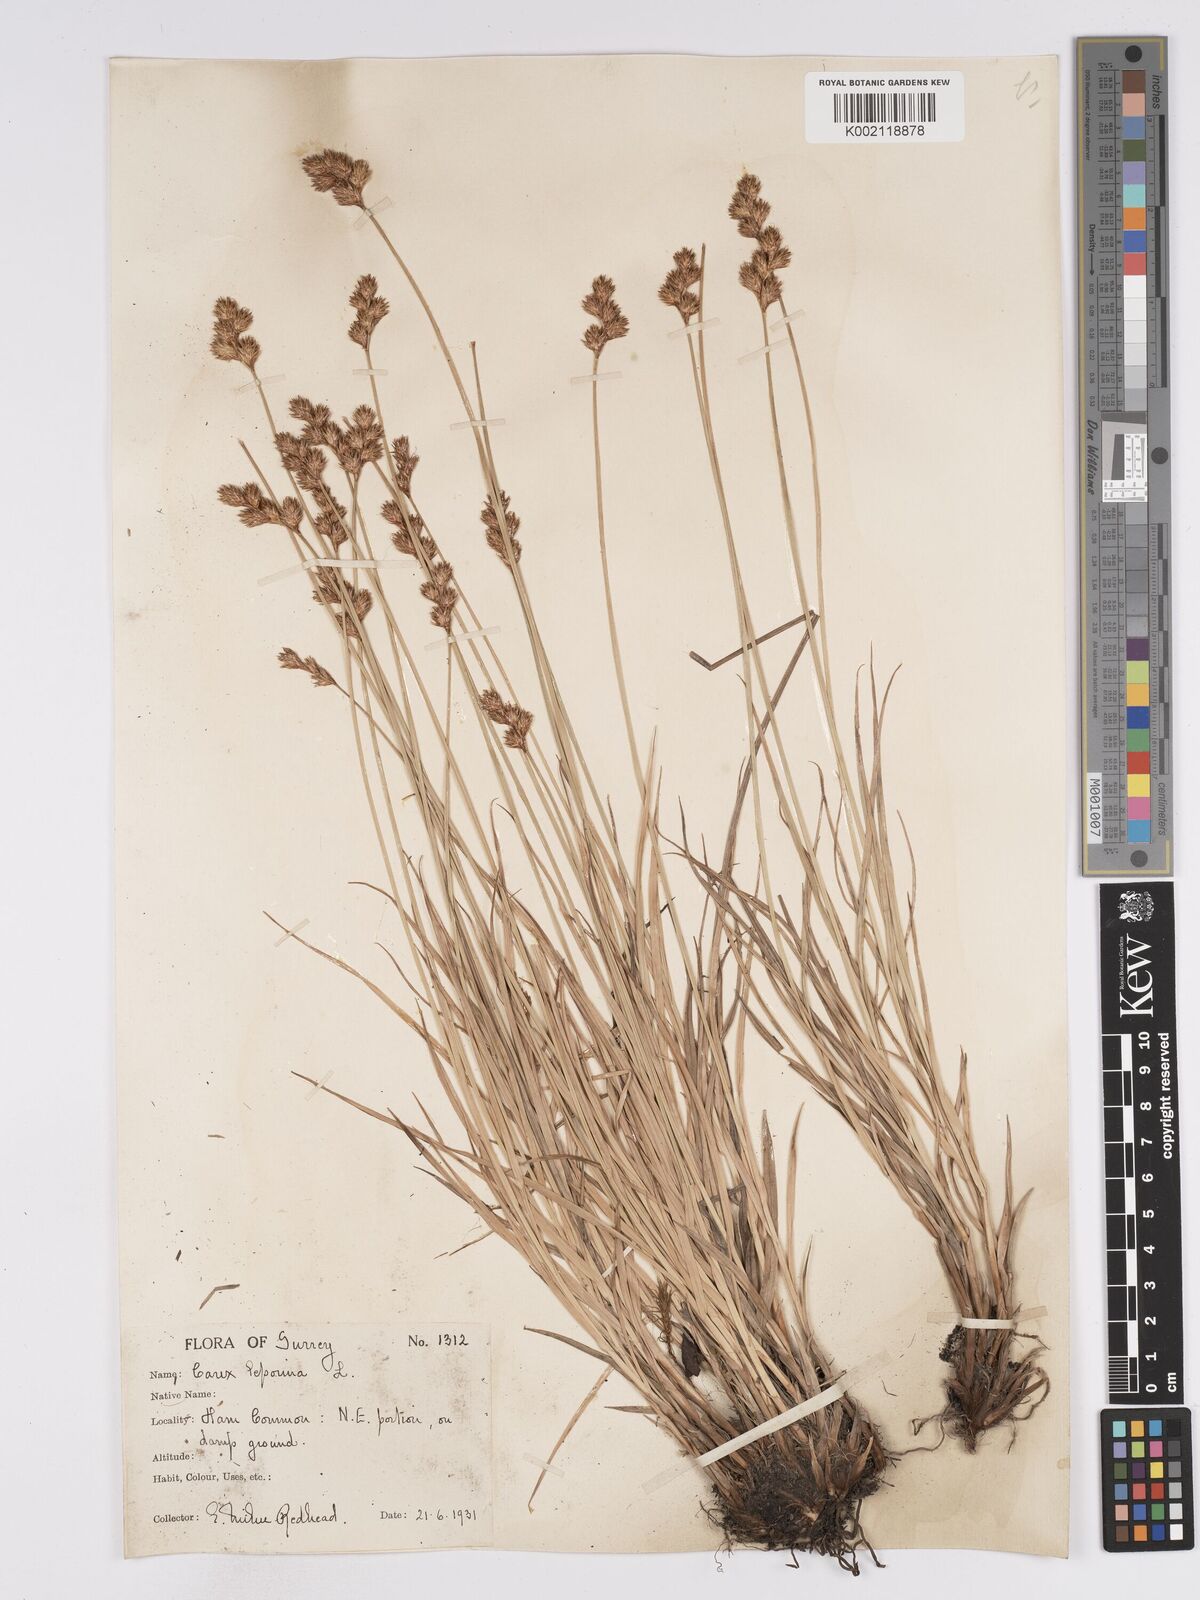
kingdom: Plantae
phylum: Tracheophyta
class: Liliopsida
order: Poales
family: Cyperaceae
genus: Carex
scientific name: Carex leporina
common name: Oval sedge
